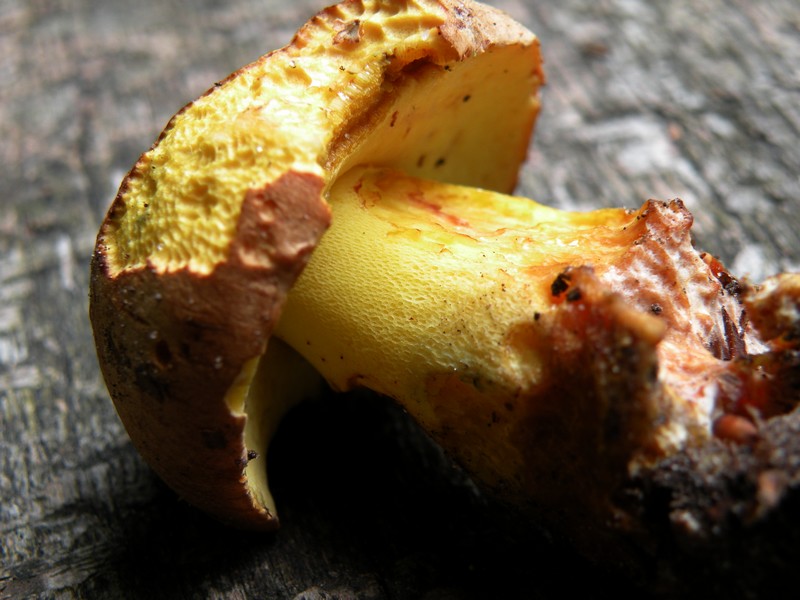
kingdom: Fungi
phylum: Basidiomycota
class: Agaricomycetes
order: Boletales
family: Boletaceae
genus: Butyriboletus
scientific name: Butyriboletus appendiculatus
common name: tenstokket rørhat
